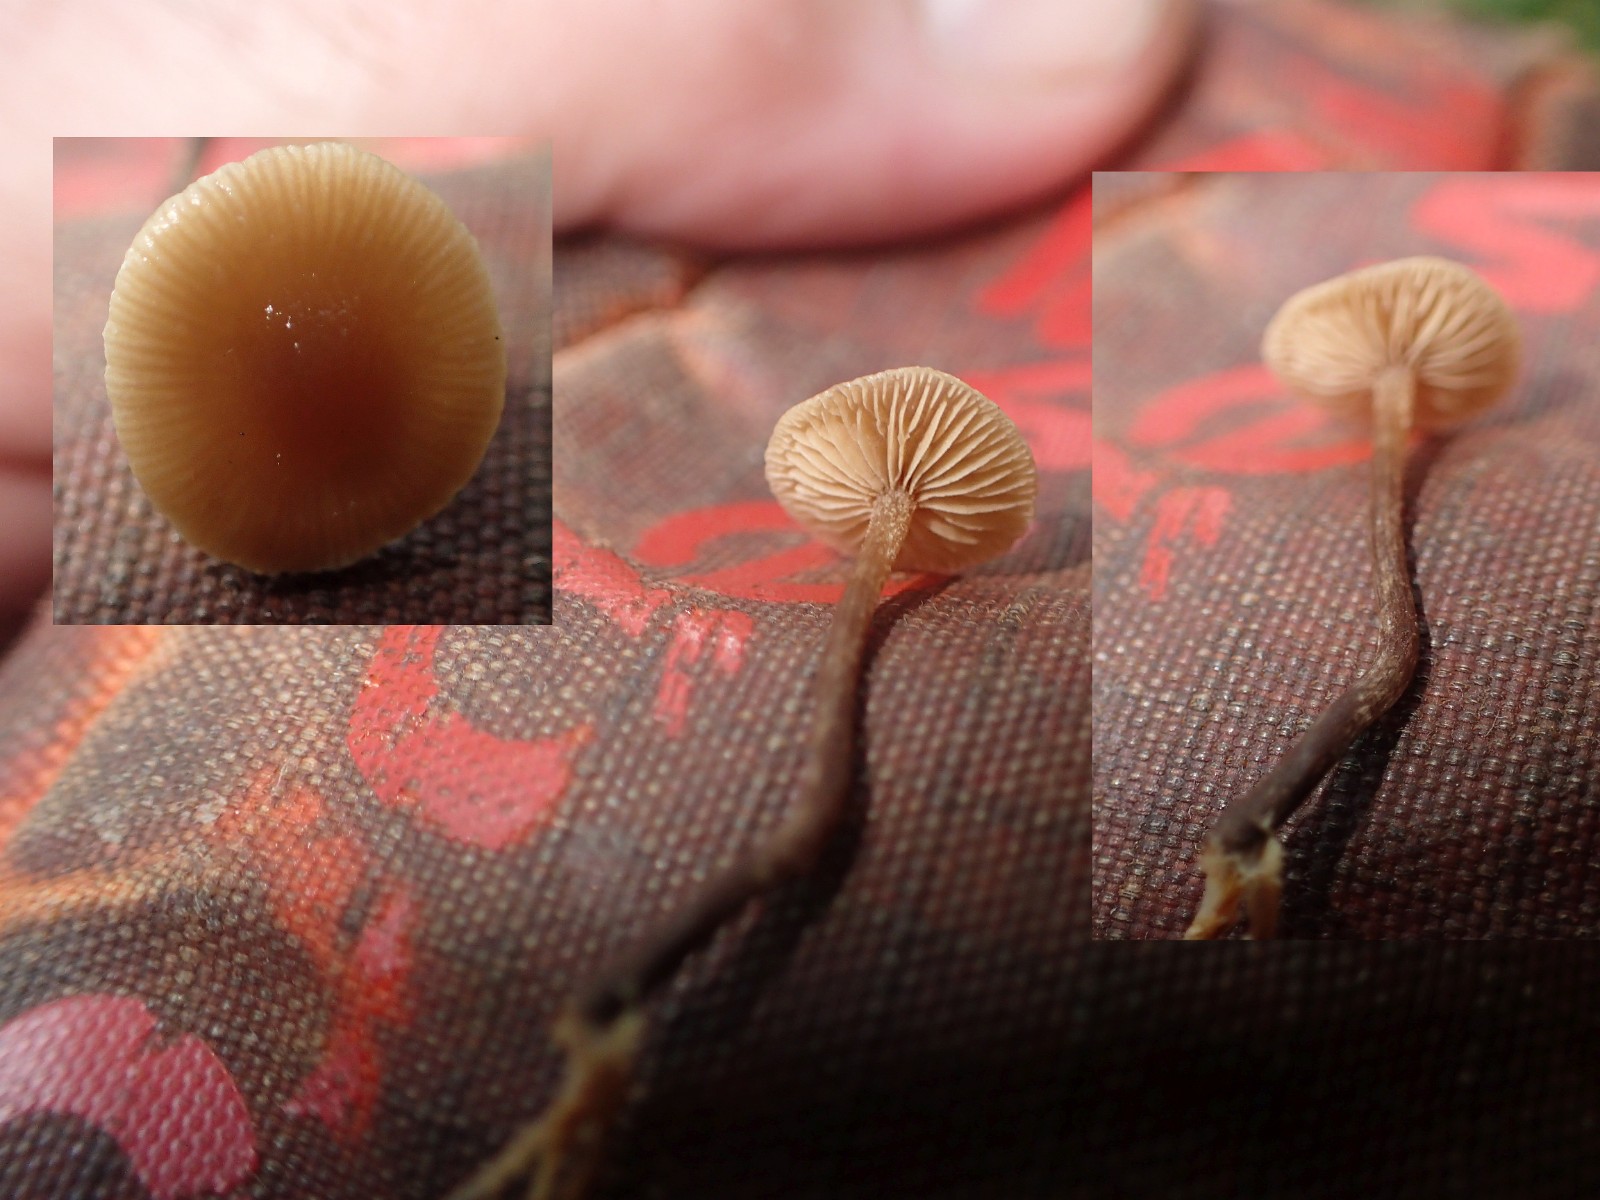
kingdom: Fungi
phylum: Basidiomycota
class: Agaricomycetes
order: Agaricales
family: Hymenogastraceae
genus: Naucoria
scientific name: Naucoria
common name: knaphat
